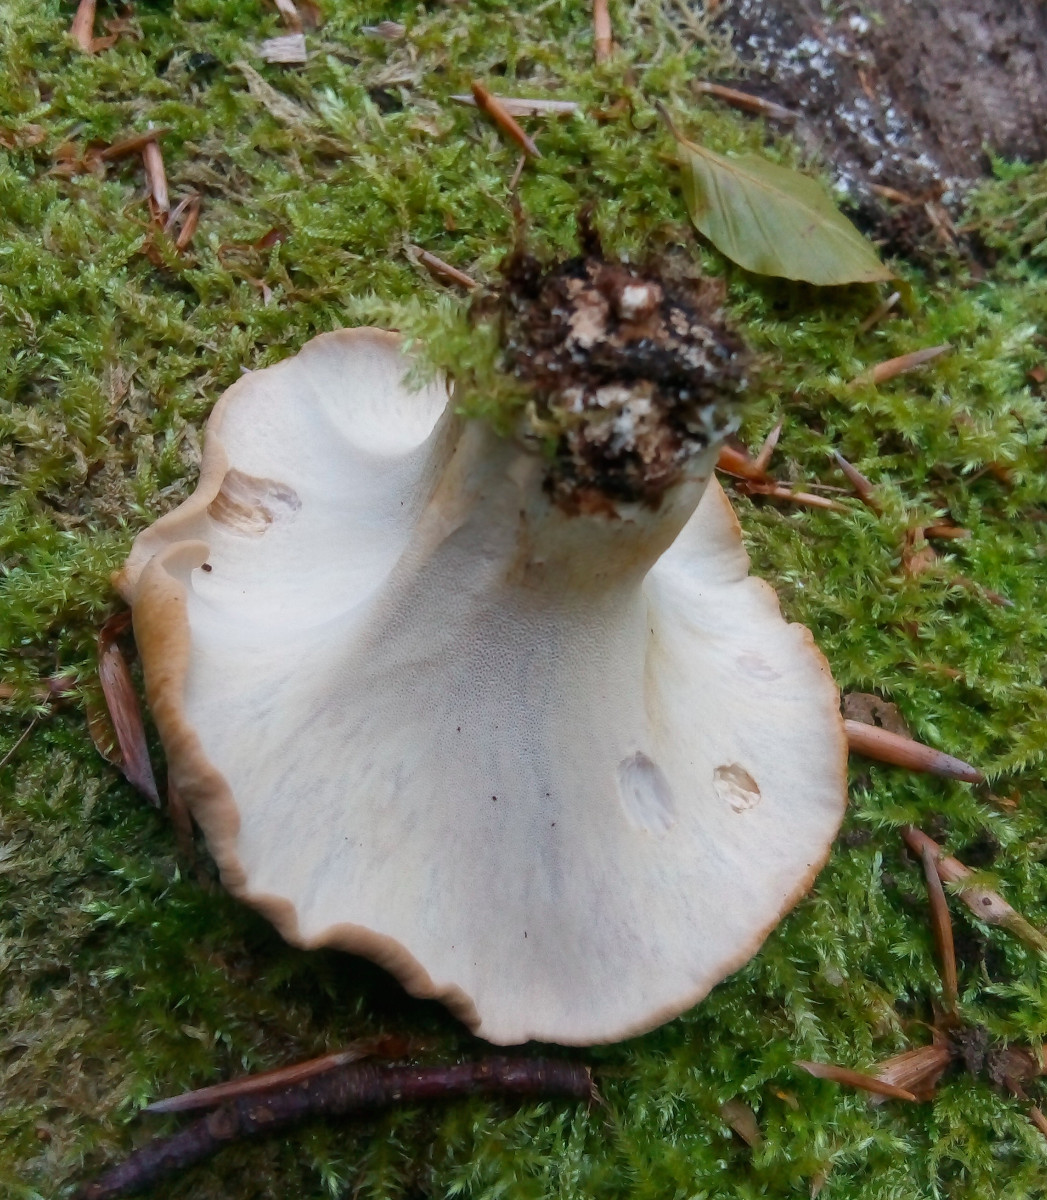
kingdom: Fungi
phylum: Basidiomycota
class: Agaricomycetes
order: Polyporales
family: Polyporaceae
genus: Cerioporus
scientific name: Cerioporus varius
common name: foranderlig stilkporesvamp
